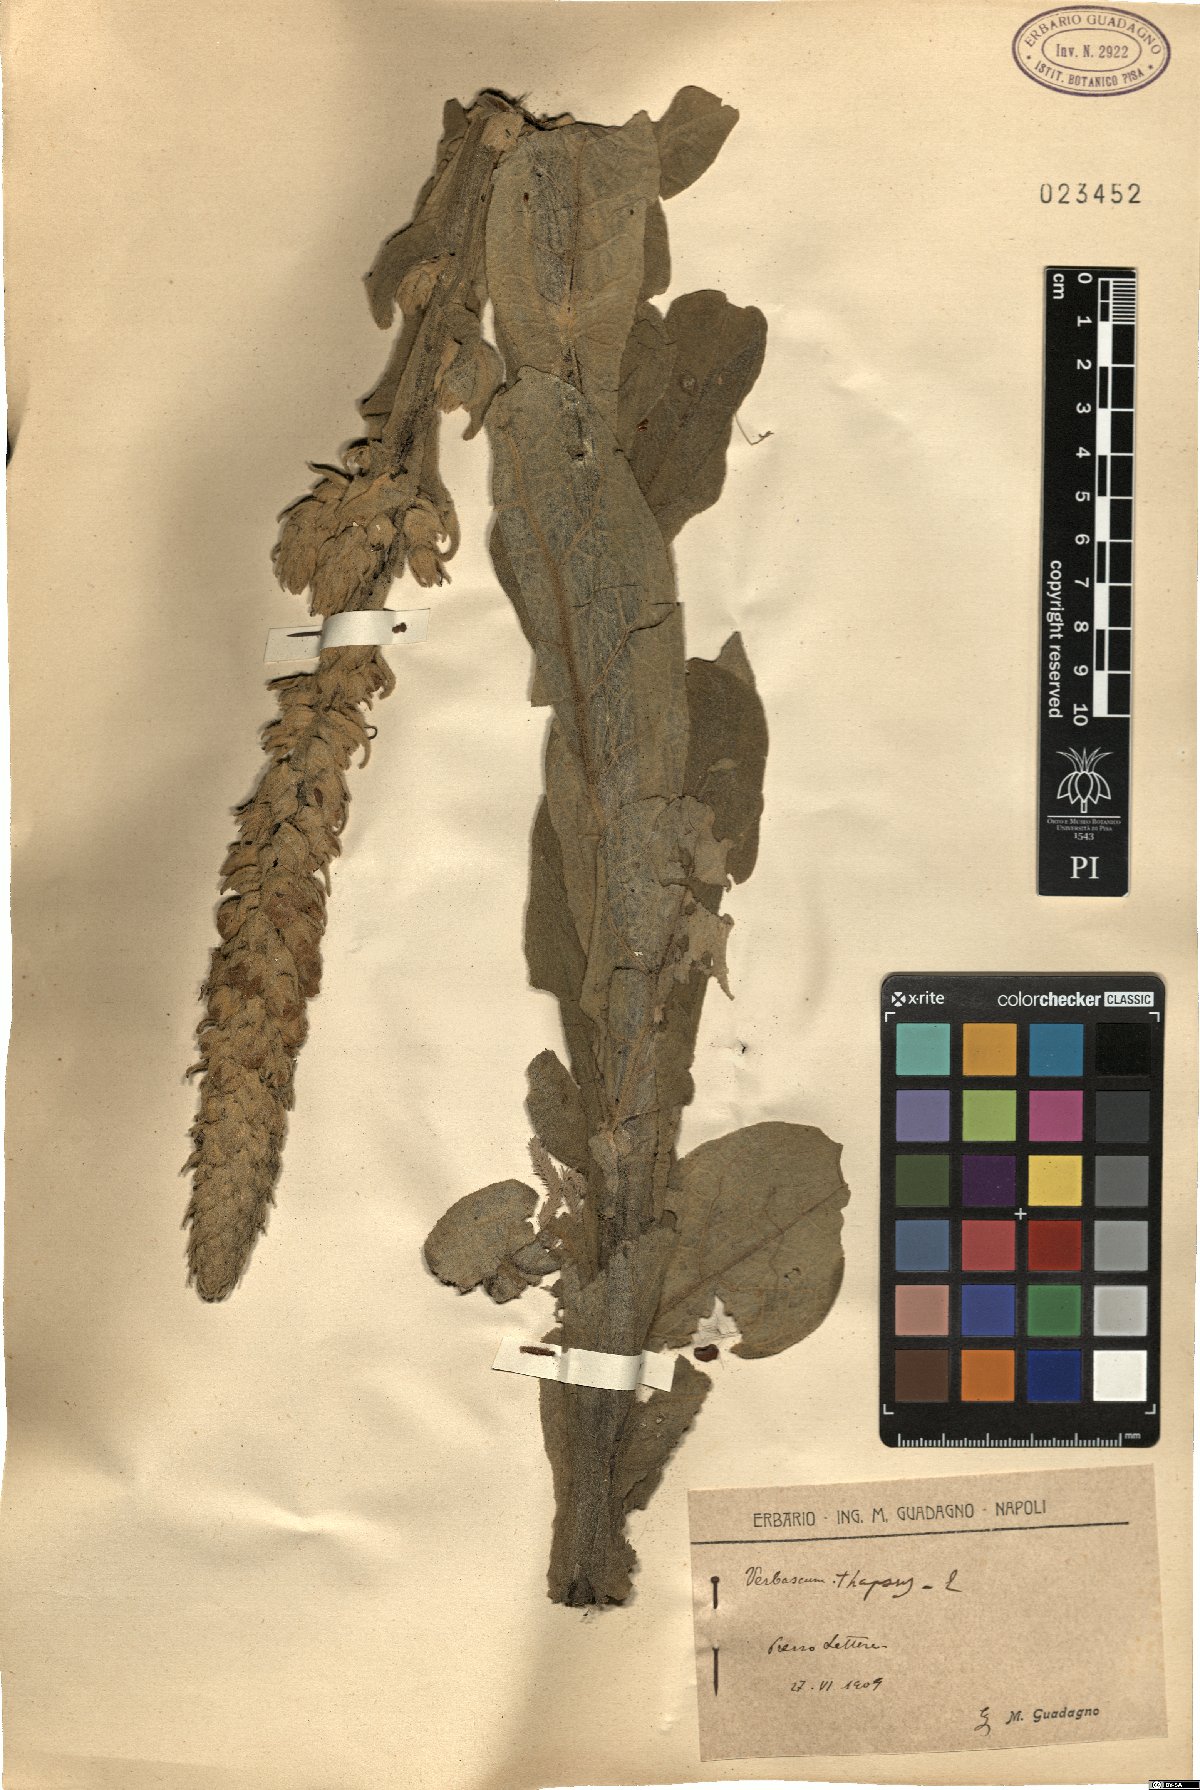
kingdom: Plantae
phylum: Tracheophyta
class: Magnoliopsida
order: Lamiales
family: Scrophulariaceae
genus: Verbascum
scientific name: Verbascum thapsus
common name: Common mullein
